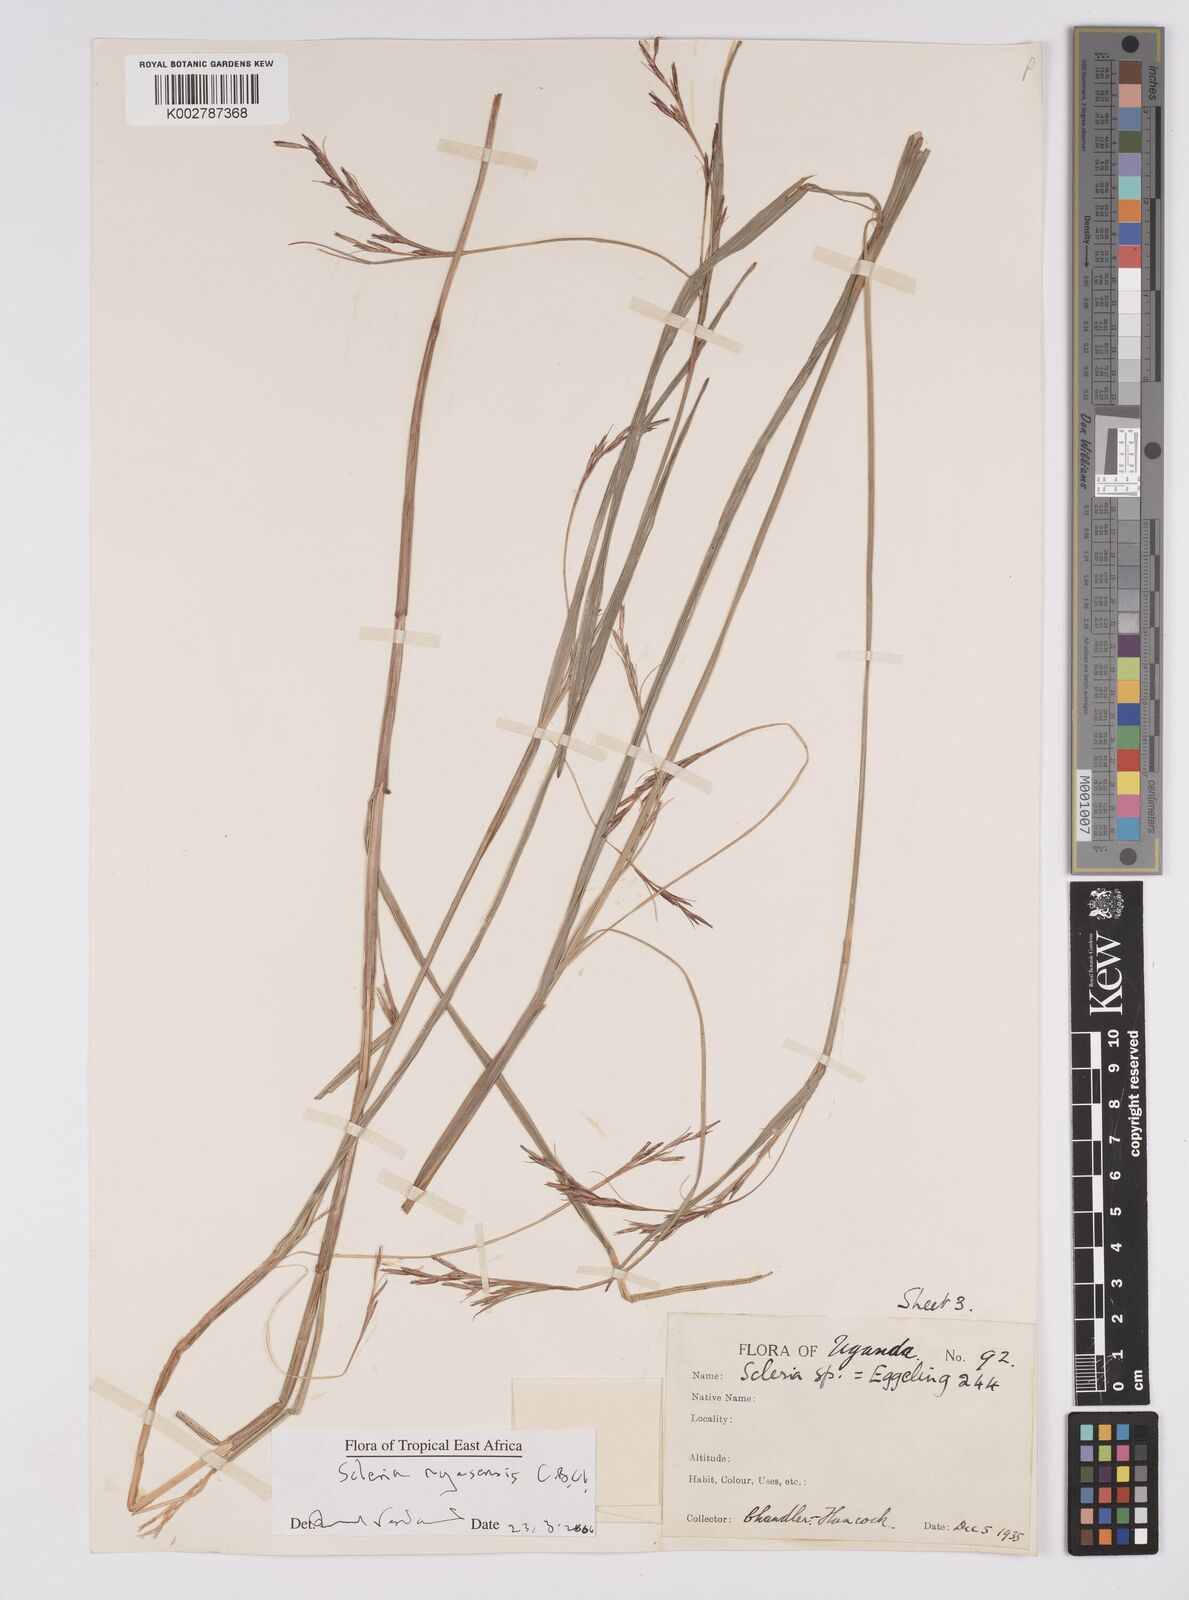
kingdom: Plantae
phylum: Tracheophyta
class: Liliopsida
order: Poales
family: Cyperaceae
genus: Scleria
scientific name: Scleria nyasensis
